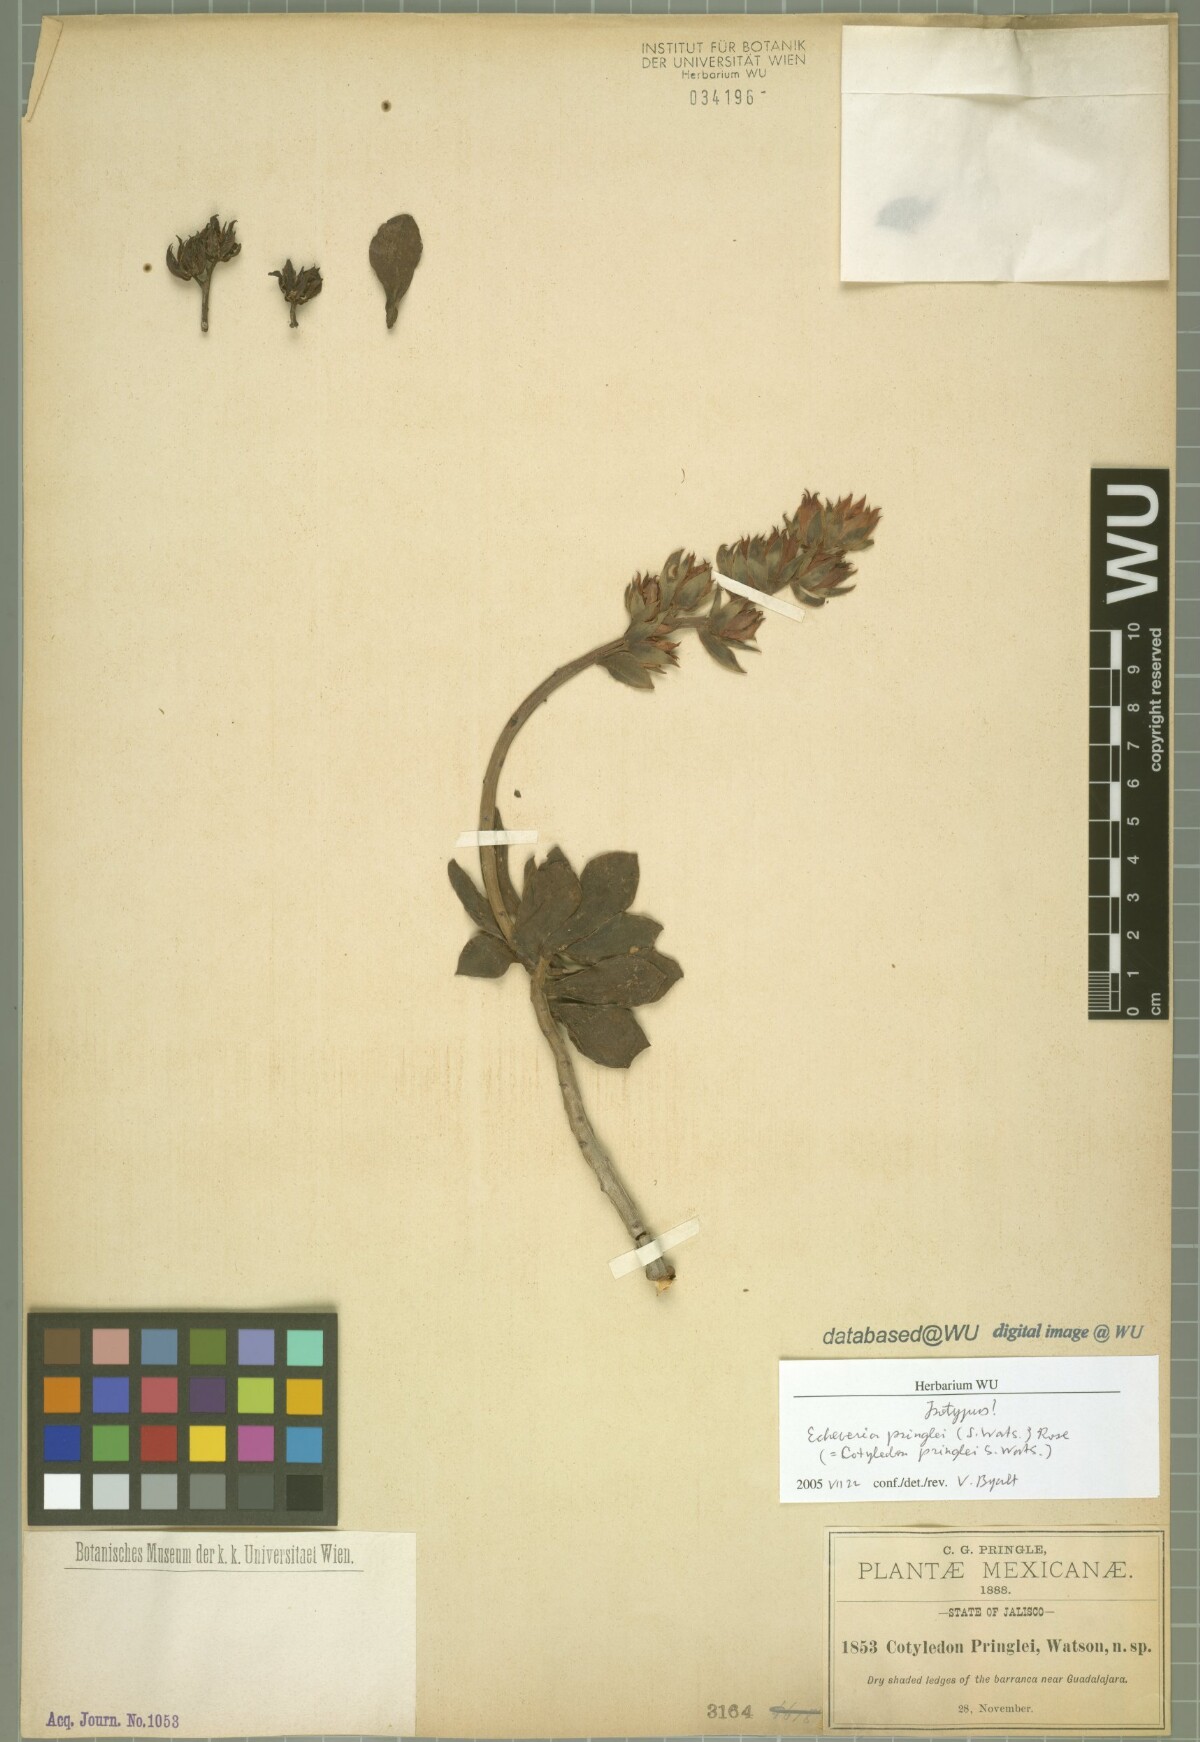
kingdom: Plantae
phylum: Tracheophyta
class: Magnoliopsida
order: Saxifragales
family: Crassulaceae
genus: Echeveria
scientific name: Echeveria pringlei
